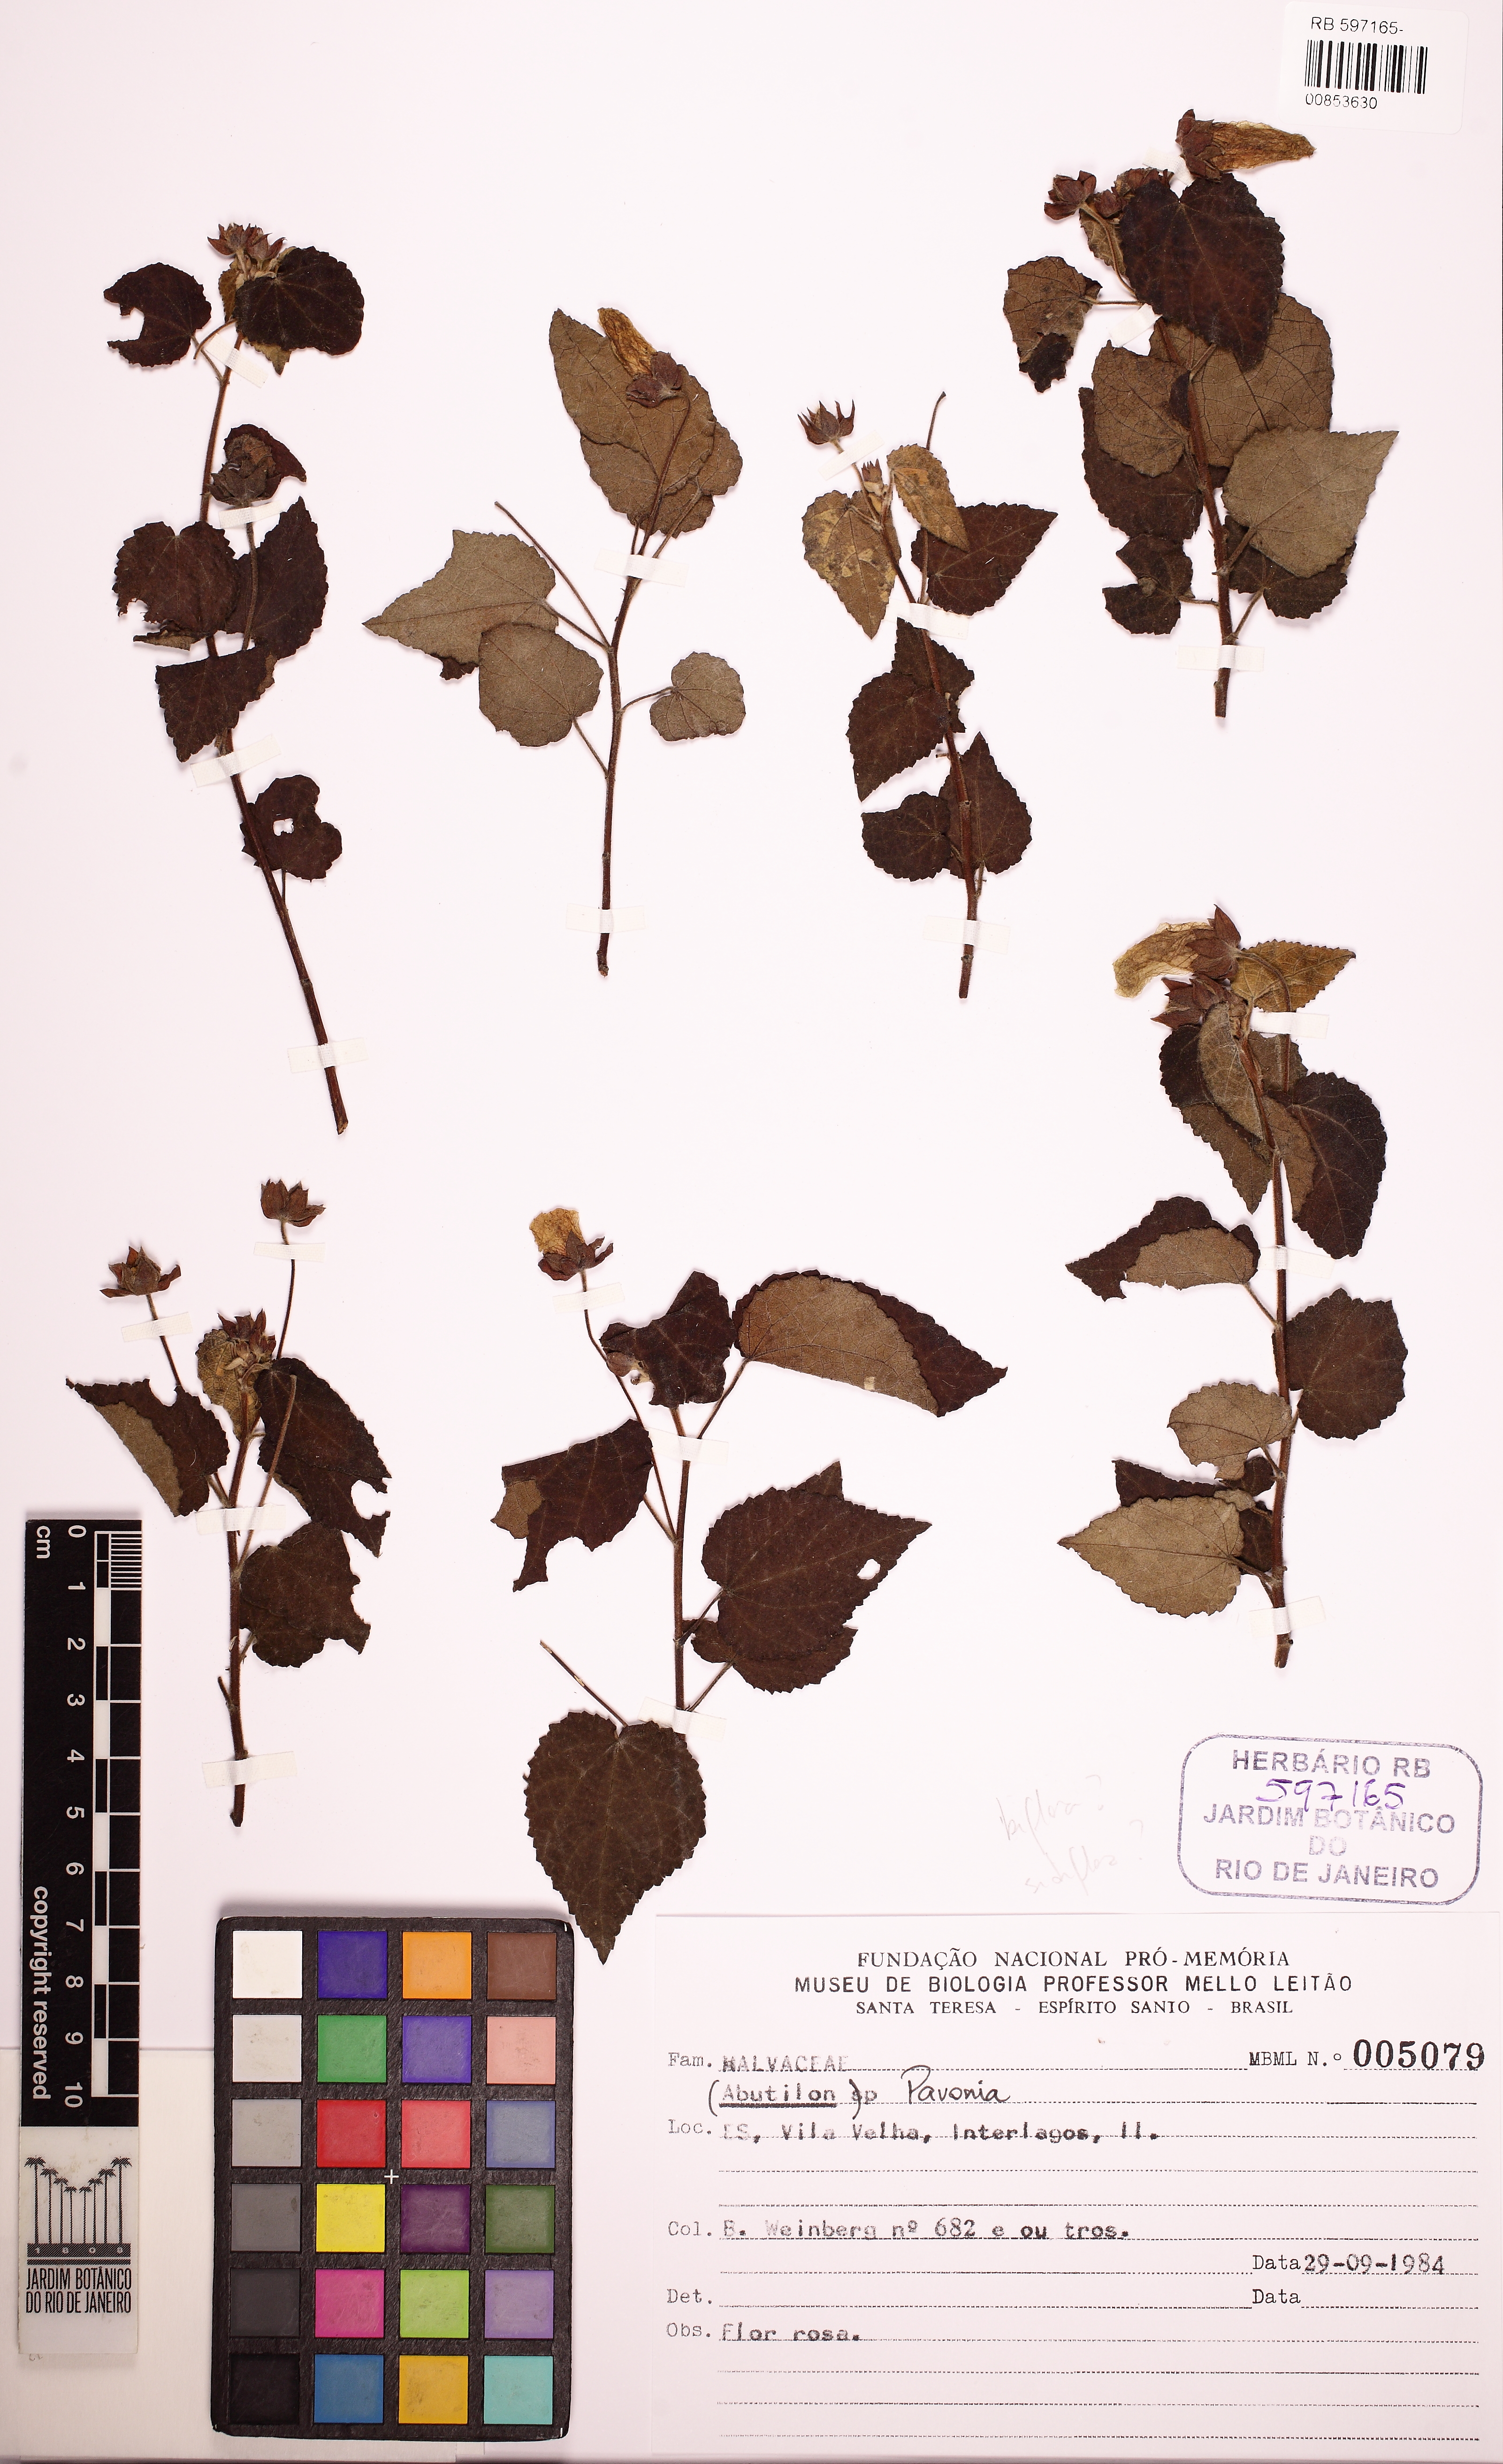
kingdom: Plantae
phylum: Tracheophyta
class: Magnoliopsida
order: Malvales
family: Malvaceae
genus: Pavonia
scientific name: Pavonia
